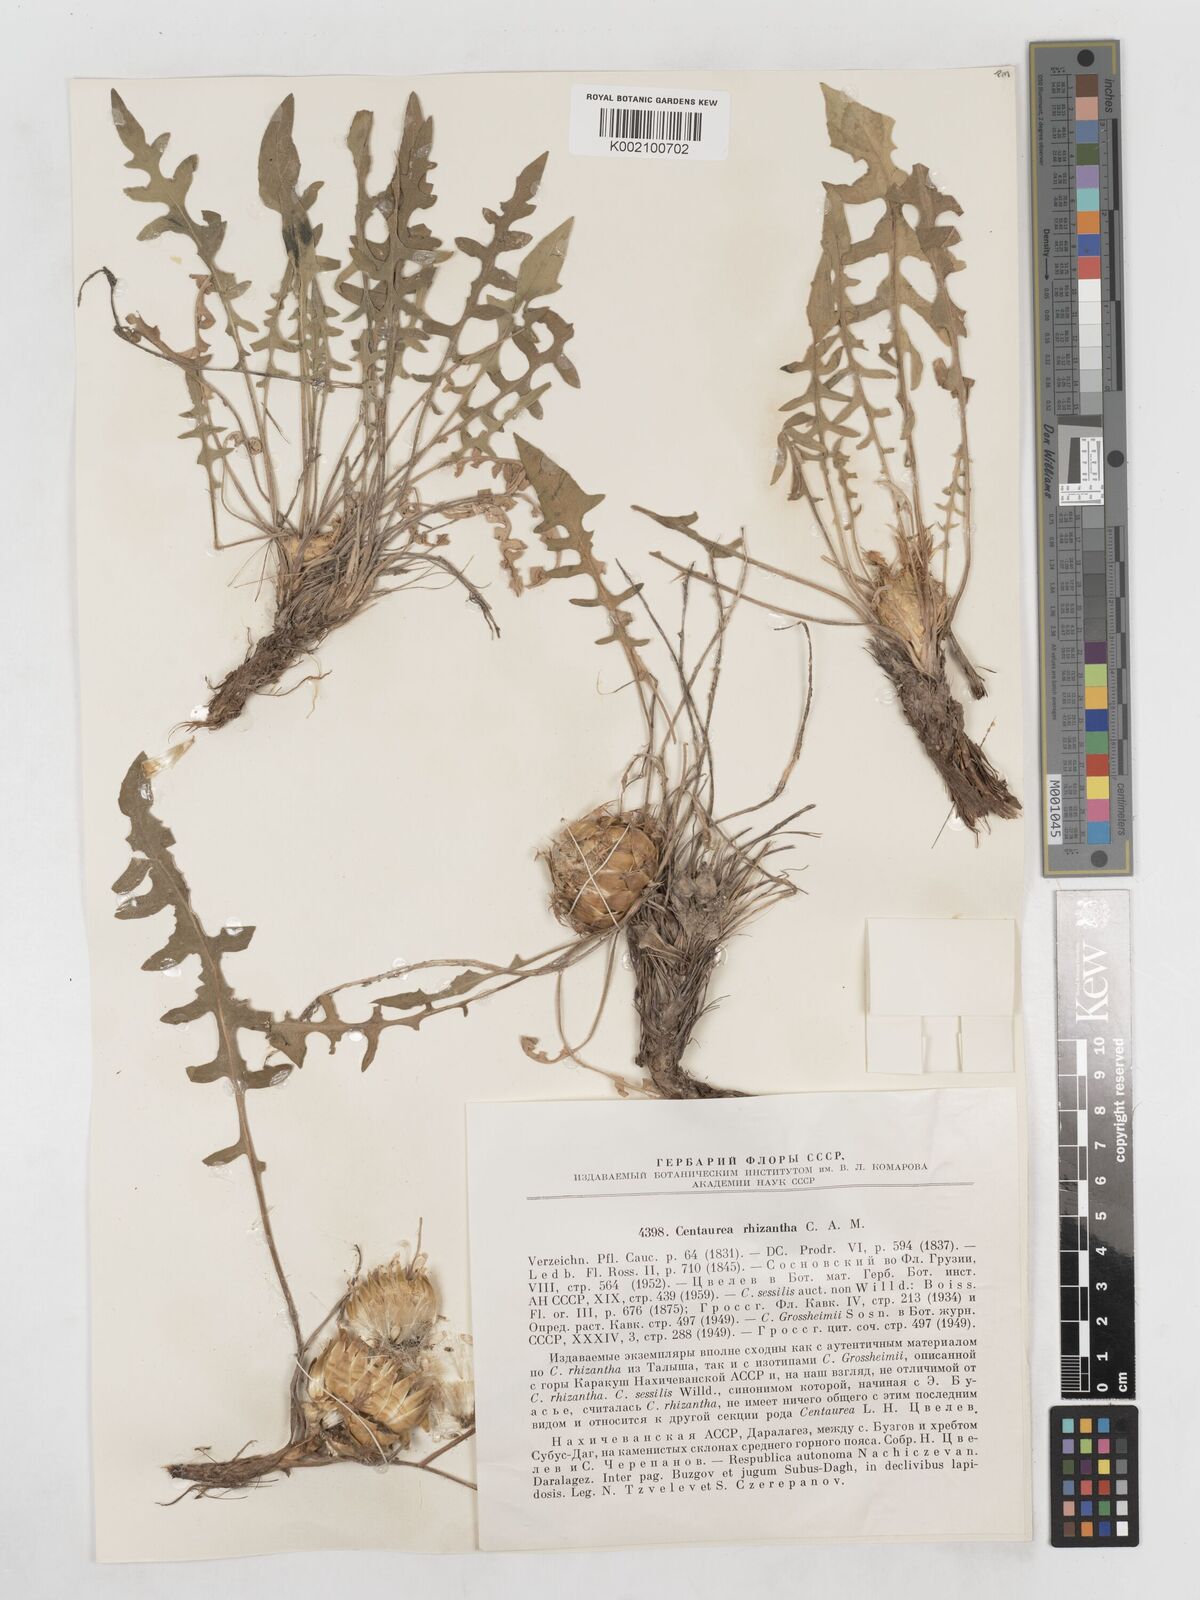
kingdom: Plantae
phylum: Tracheophyta
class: Magnoliopsida
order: Asterales
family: Asteraceae
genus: Centaurea
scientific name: Centaurea rhizantha
